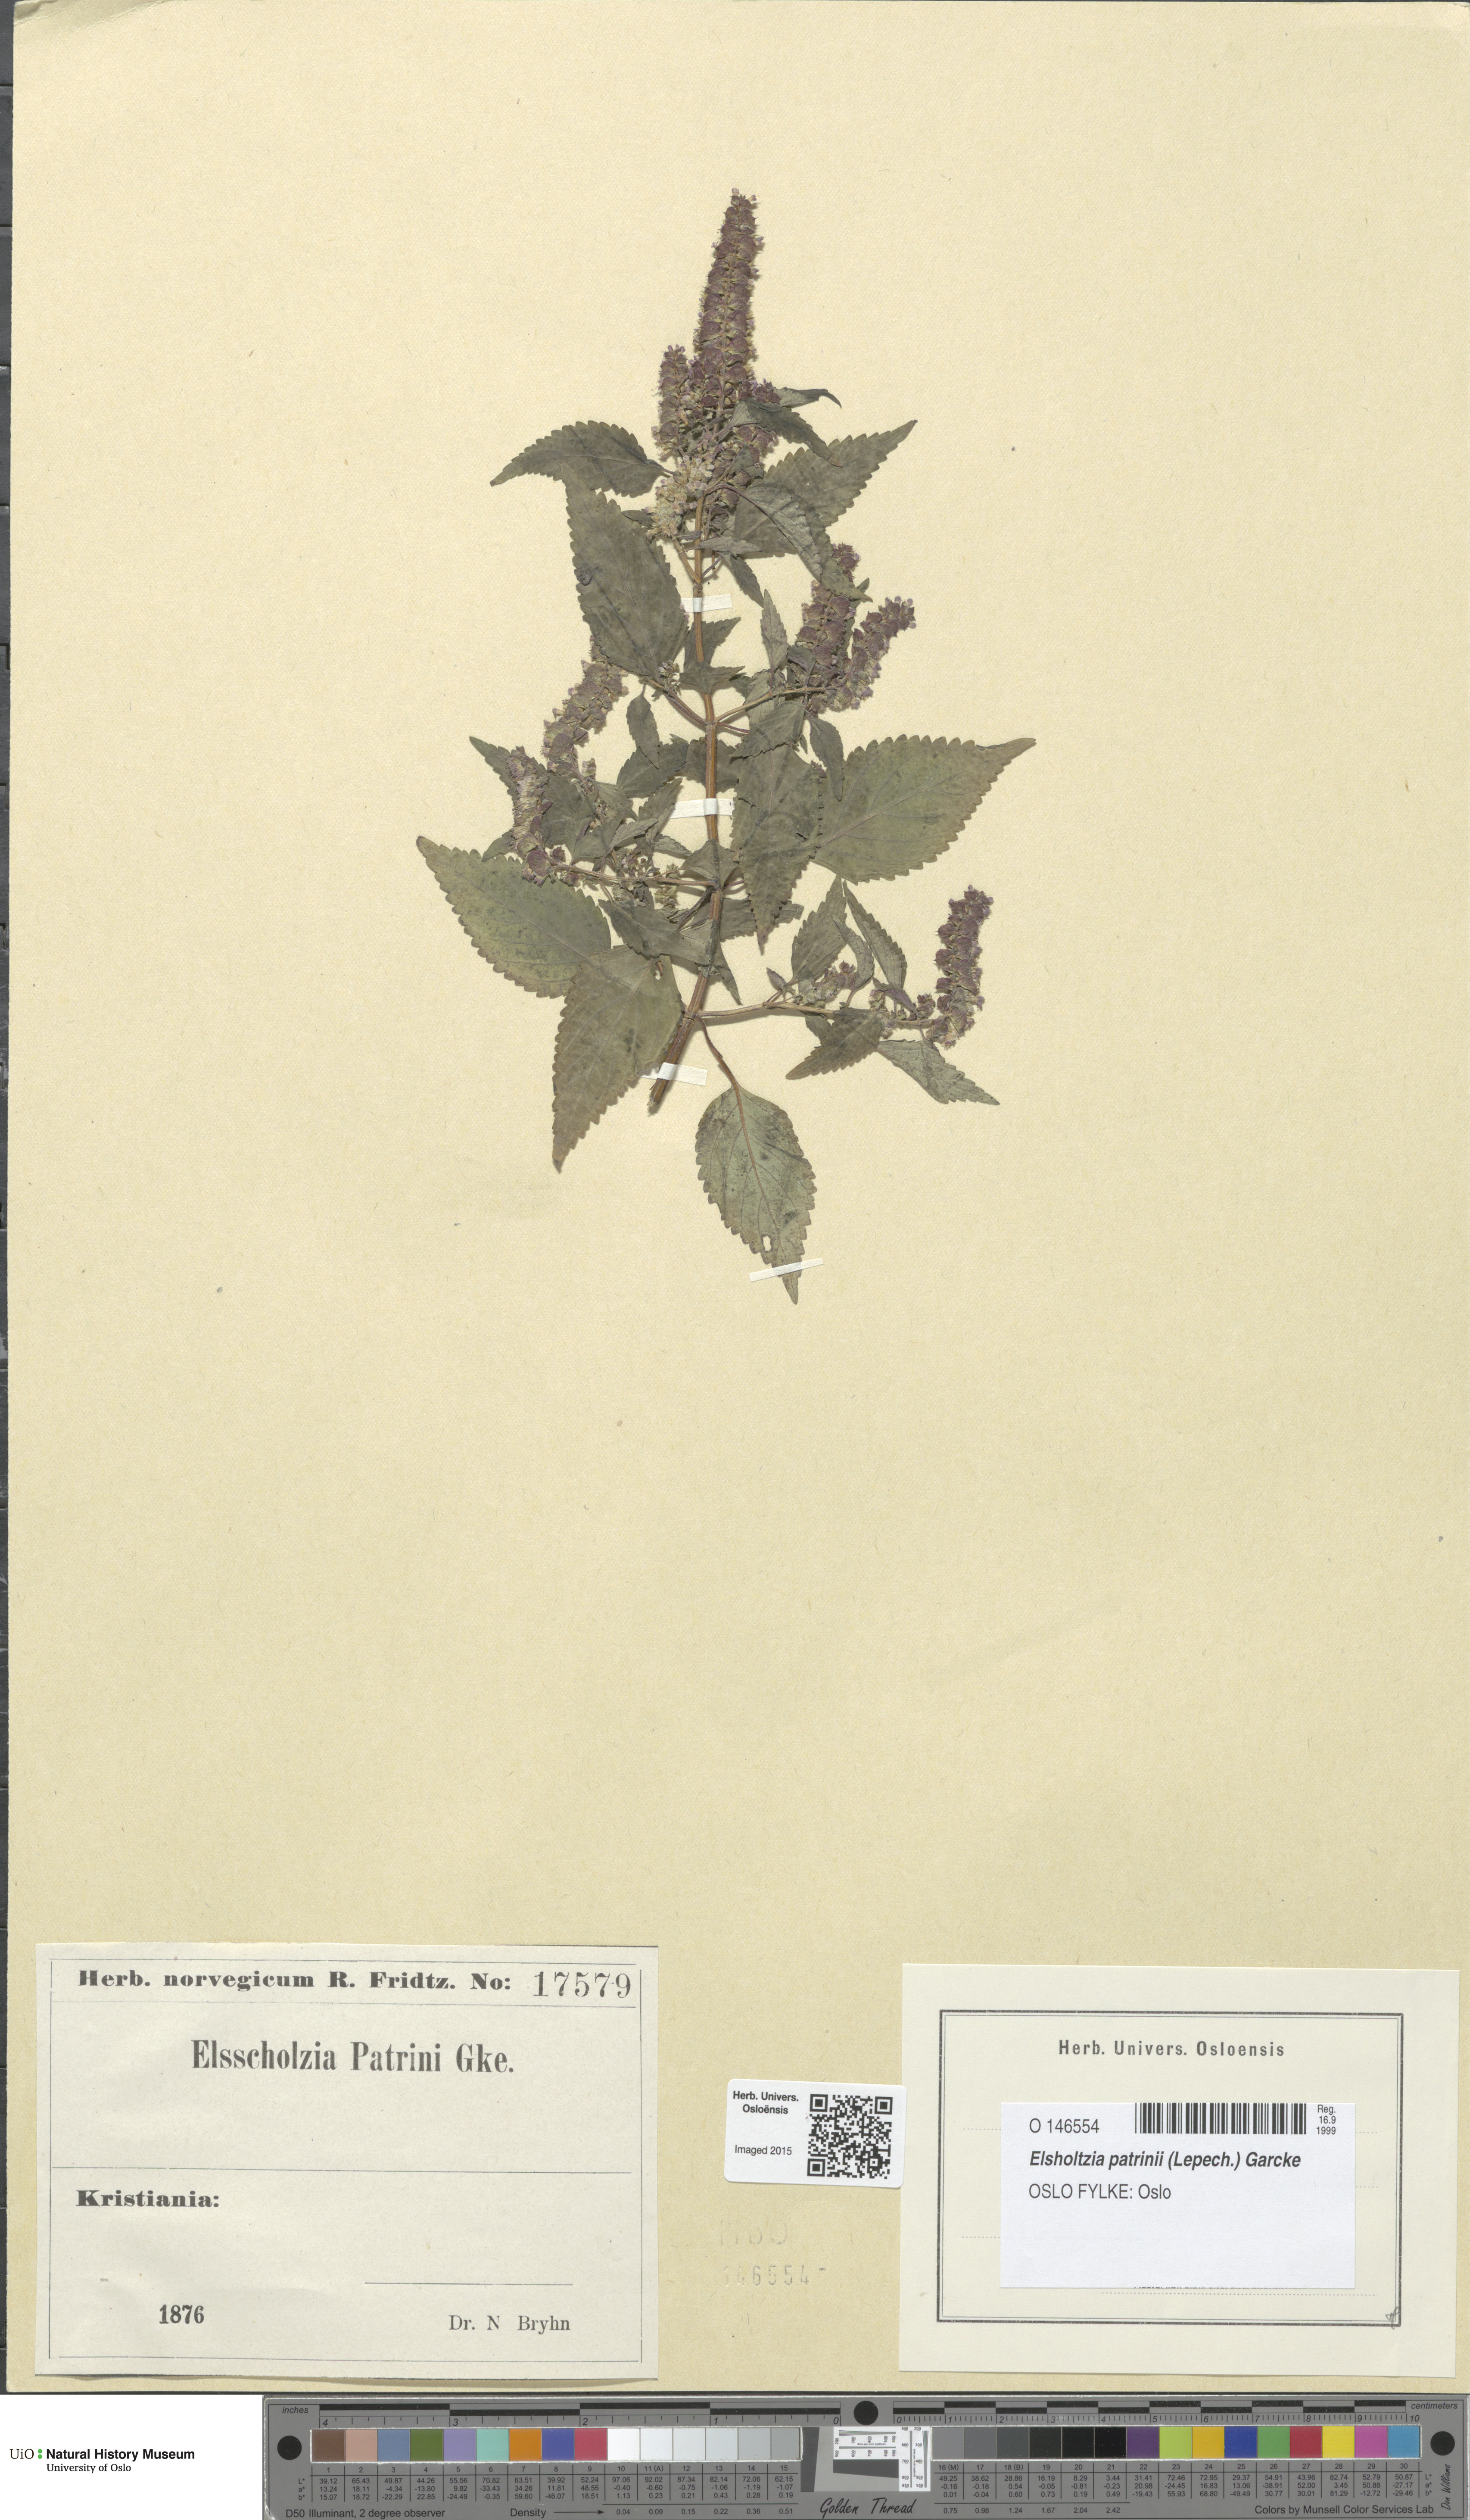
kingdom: Plantae
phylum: Tracheophyta
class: Magnoliopsida
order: Lamiales
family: Lamiaceae
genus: Elsholtzia
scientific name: Elsholtzia ciliata
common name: Ciliate elsholtzia
